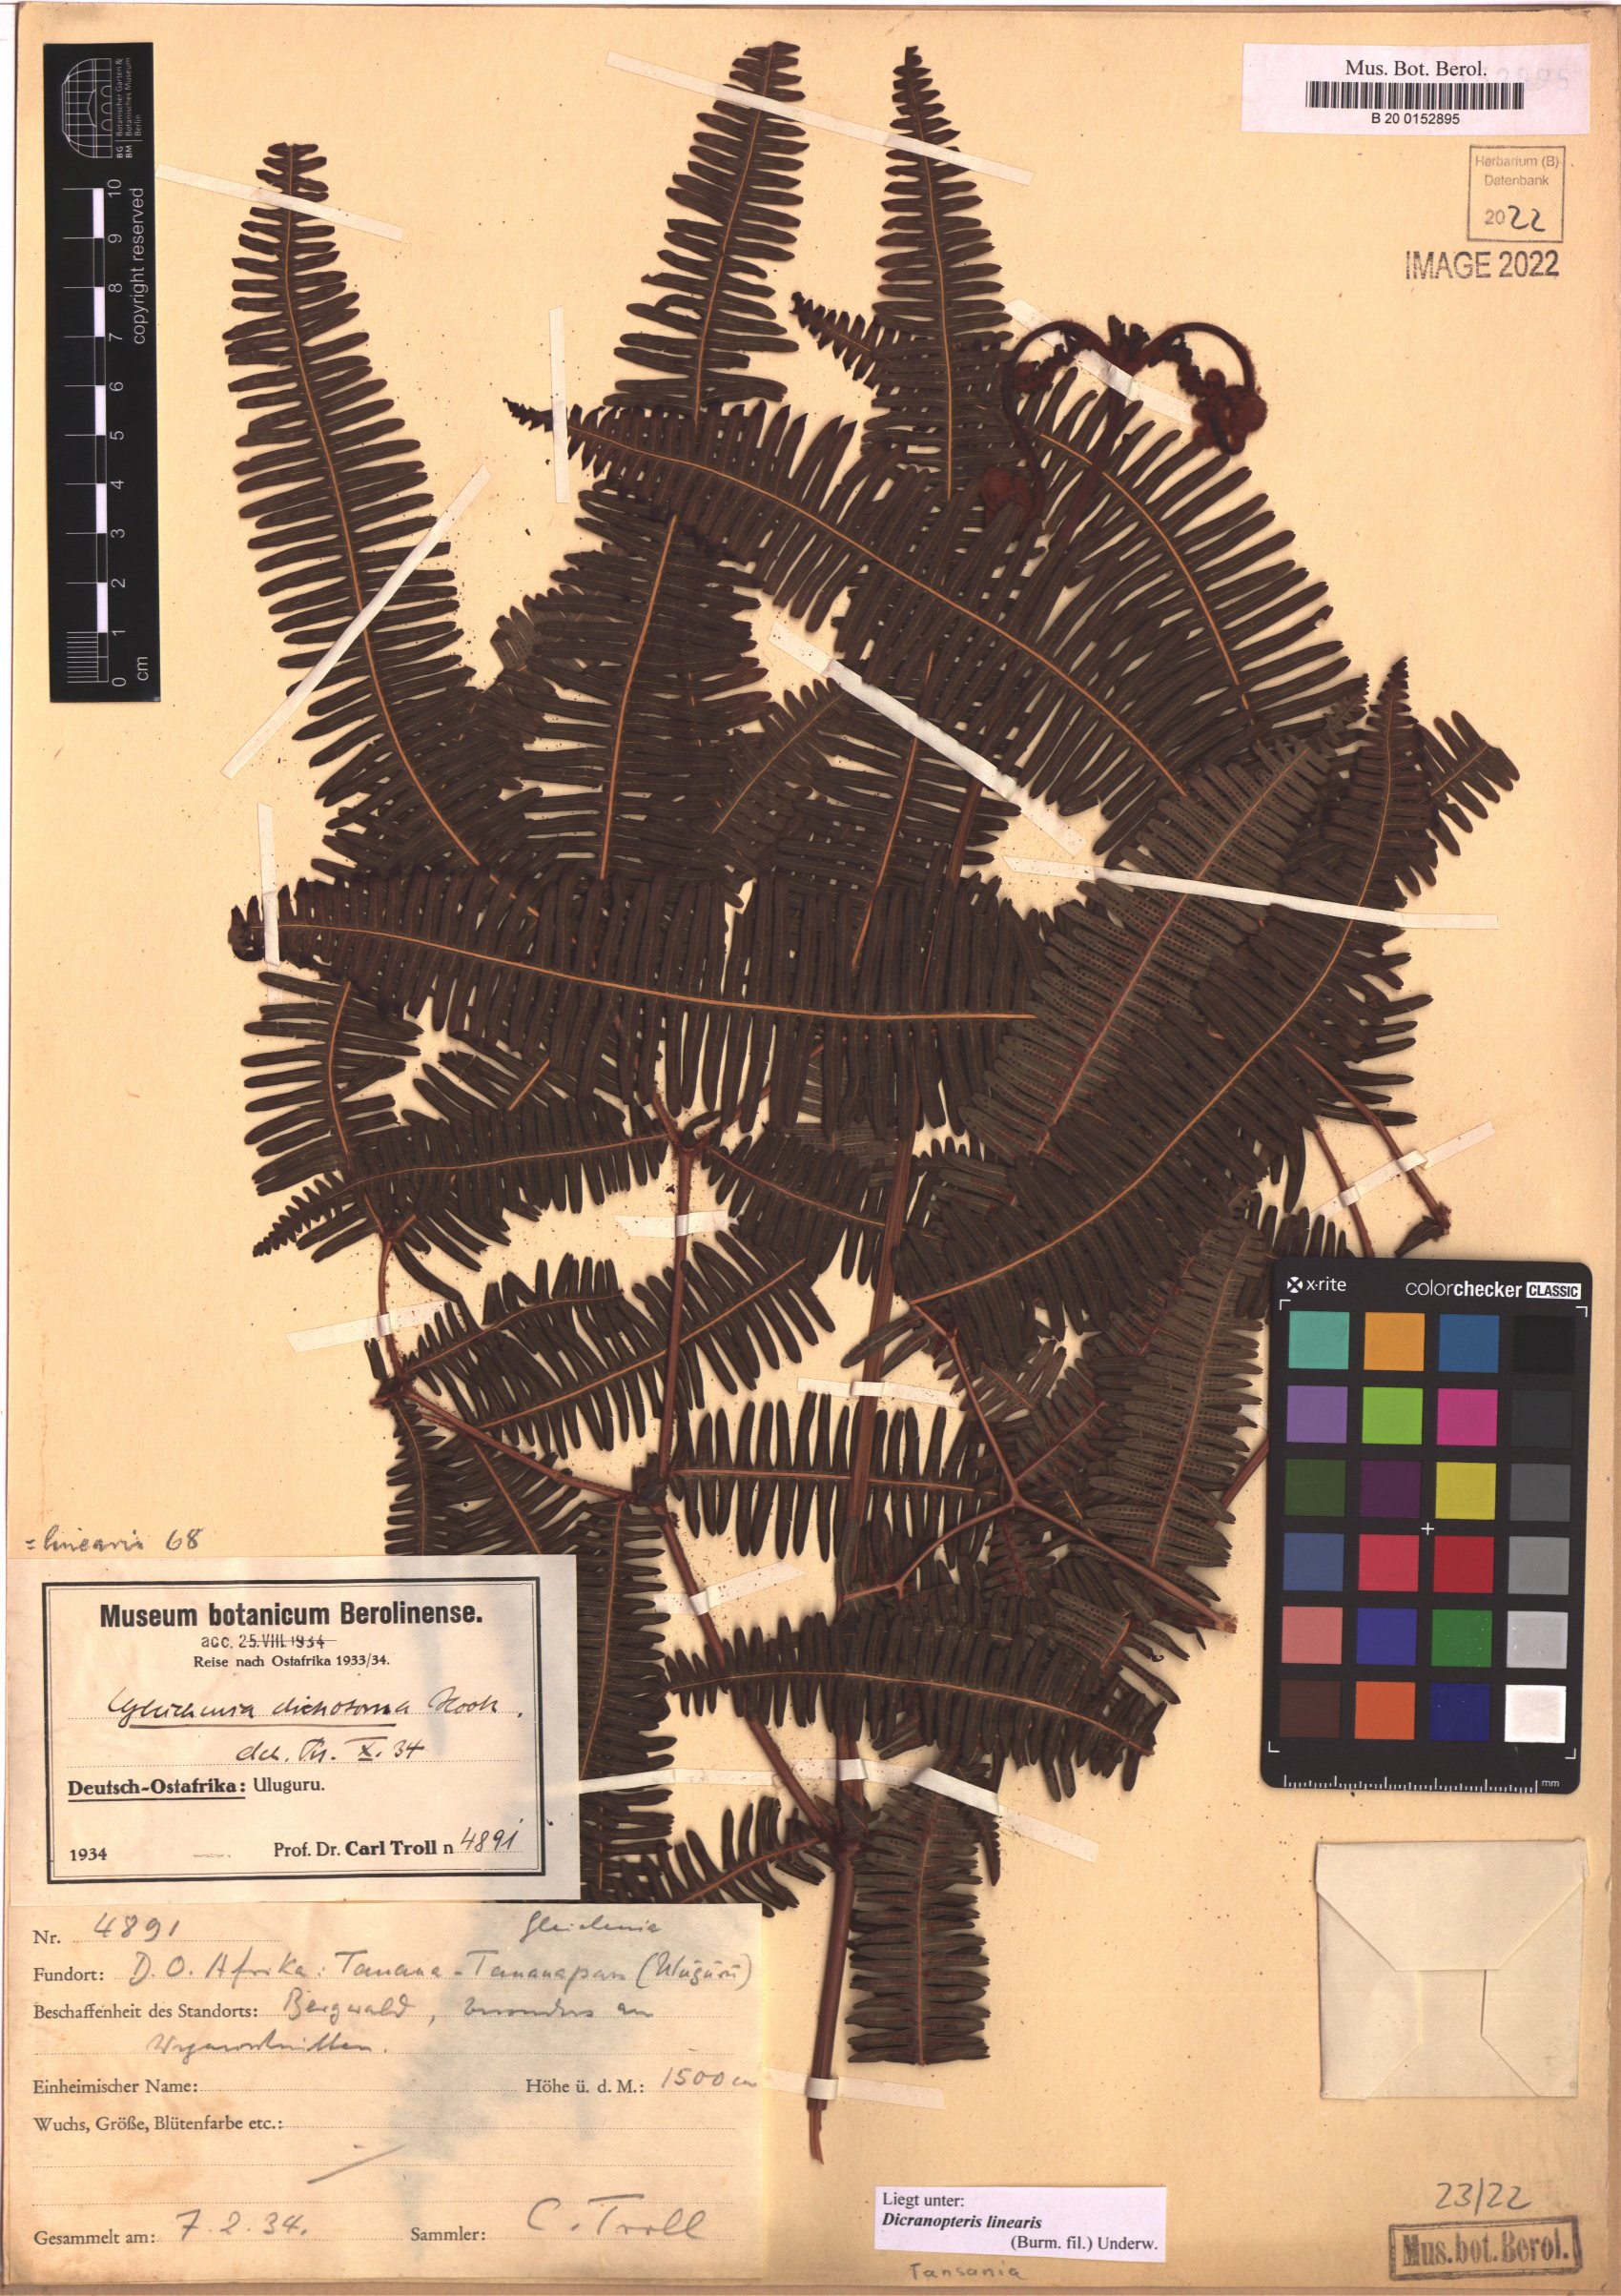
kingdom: Plantae
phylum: Tracheophyta
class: Polypodiopsida
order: Gleicheniales
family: Gleicheniaceae
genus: Dicranopteris
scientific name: Dicranopteris linearis
